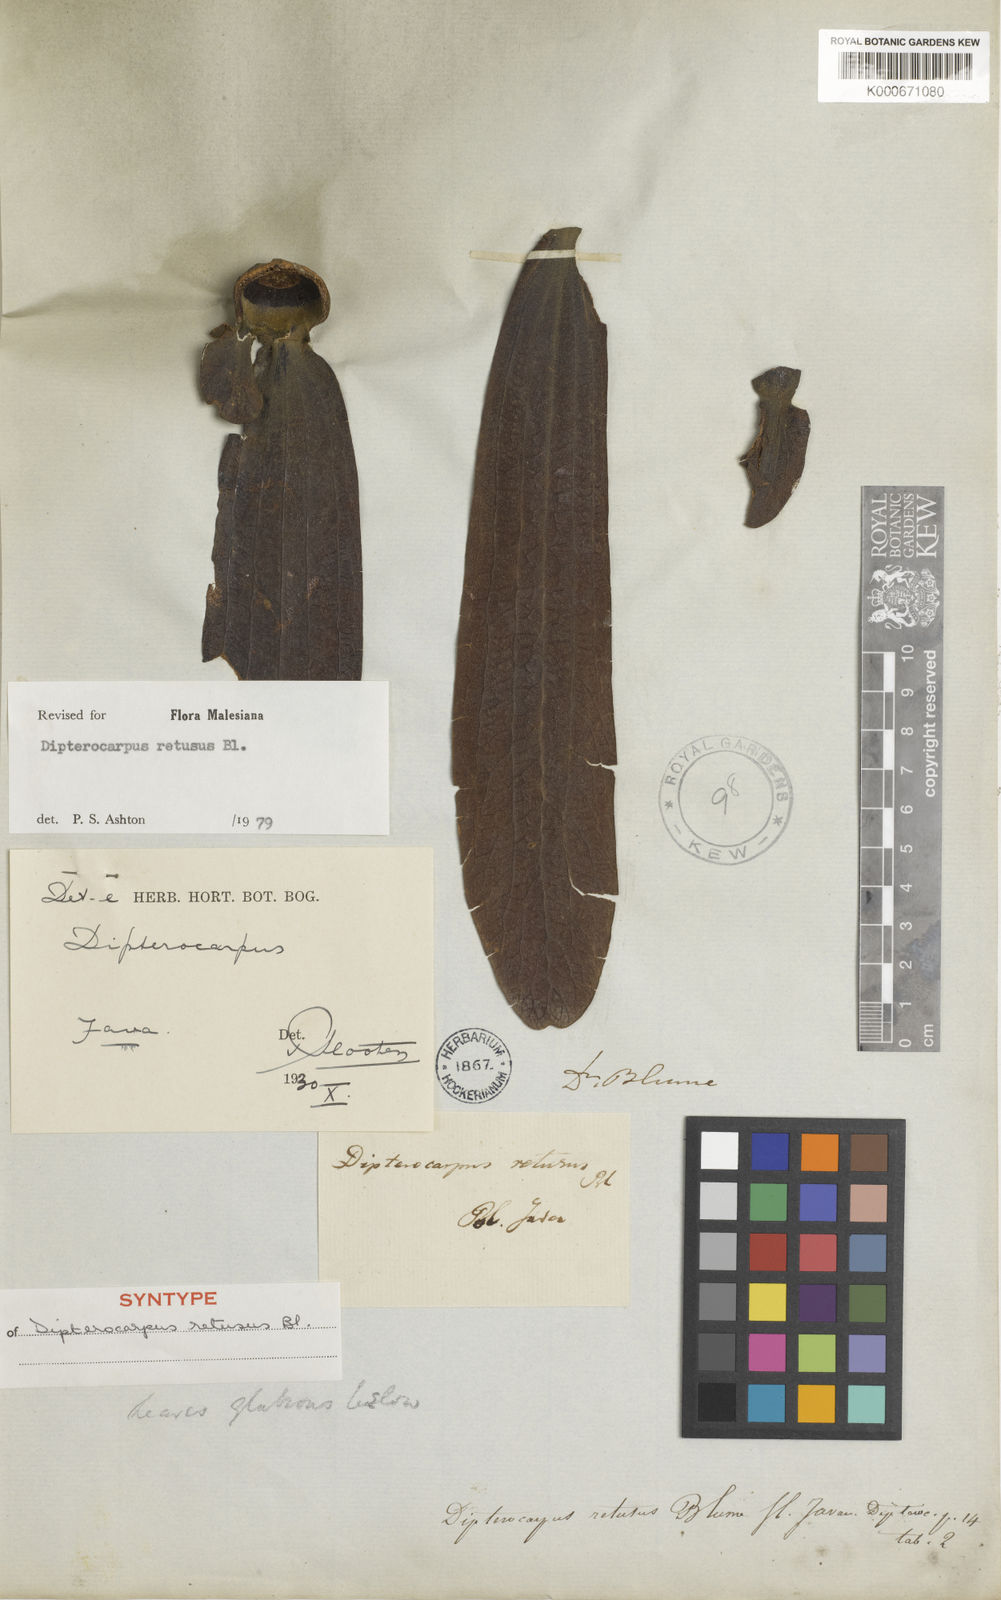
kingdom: Plantae
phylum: Tracheophyta
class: Magnoliopsida
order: Malvales
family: Dipterocarpaceae
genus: Dipterocarpus
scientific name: Dipterocarpus retusus
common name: Hollong
